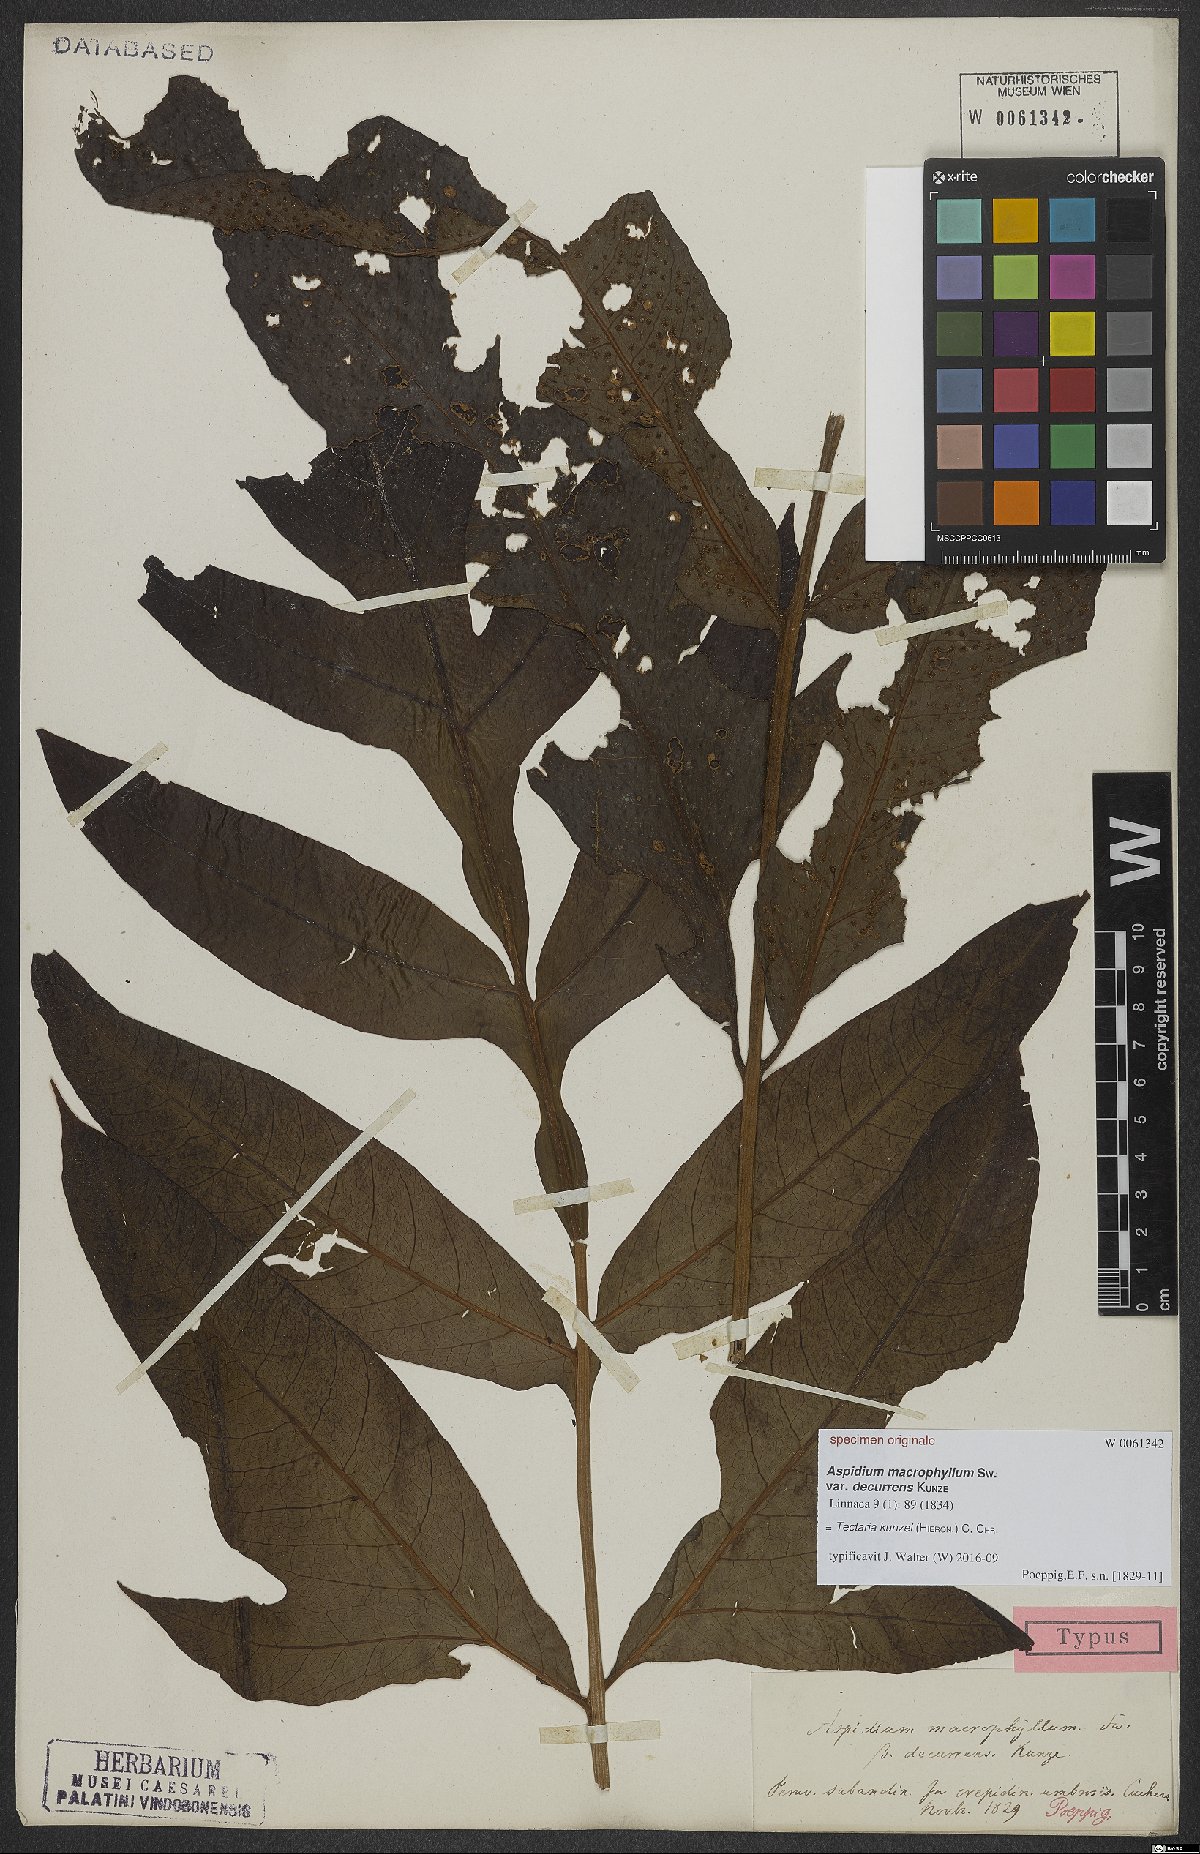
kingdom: Plantae
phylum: Tracheophyta
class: Polypodiopsida
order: Polypodiales
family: Tectariaceae
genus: Tectaria
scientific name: Tectaria kunzei
